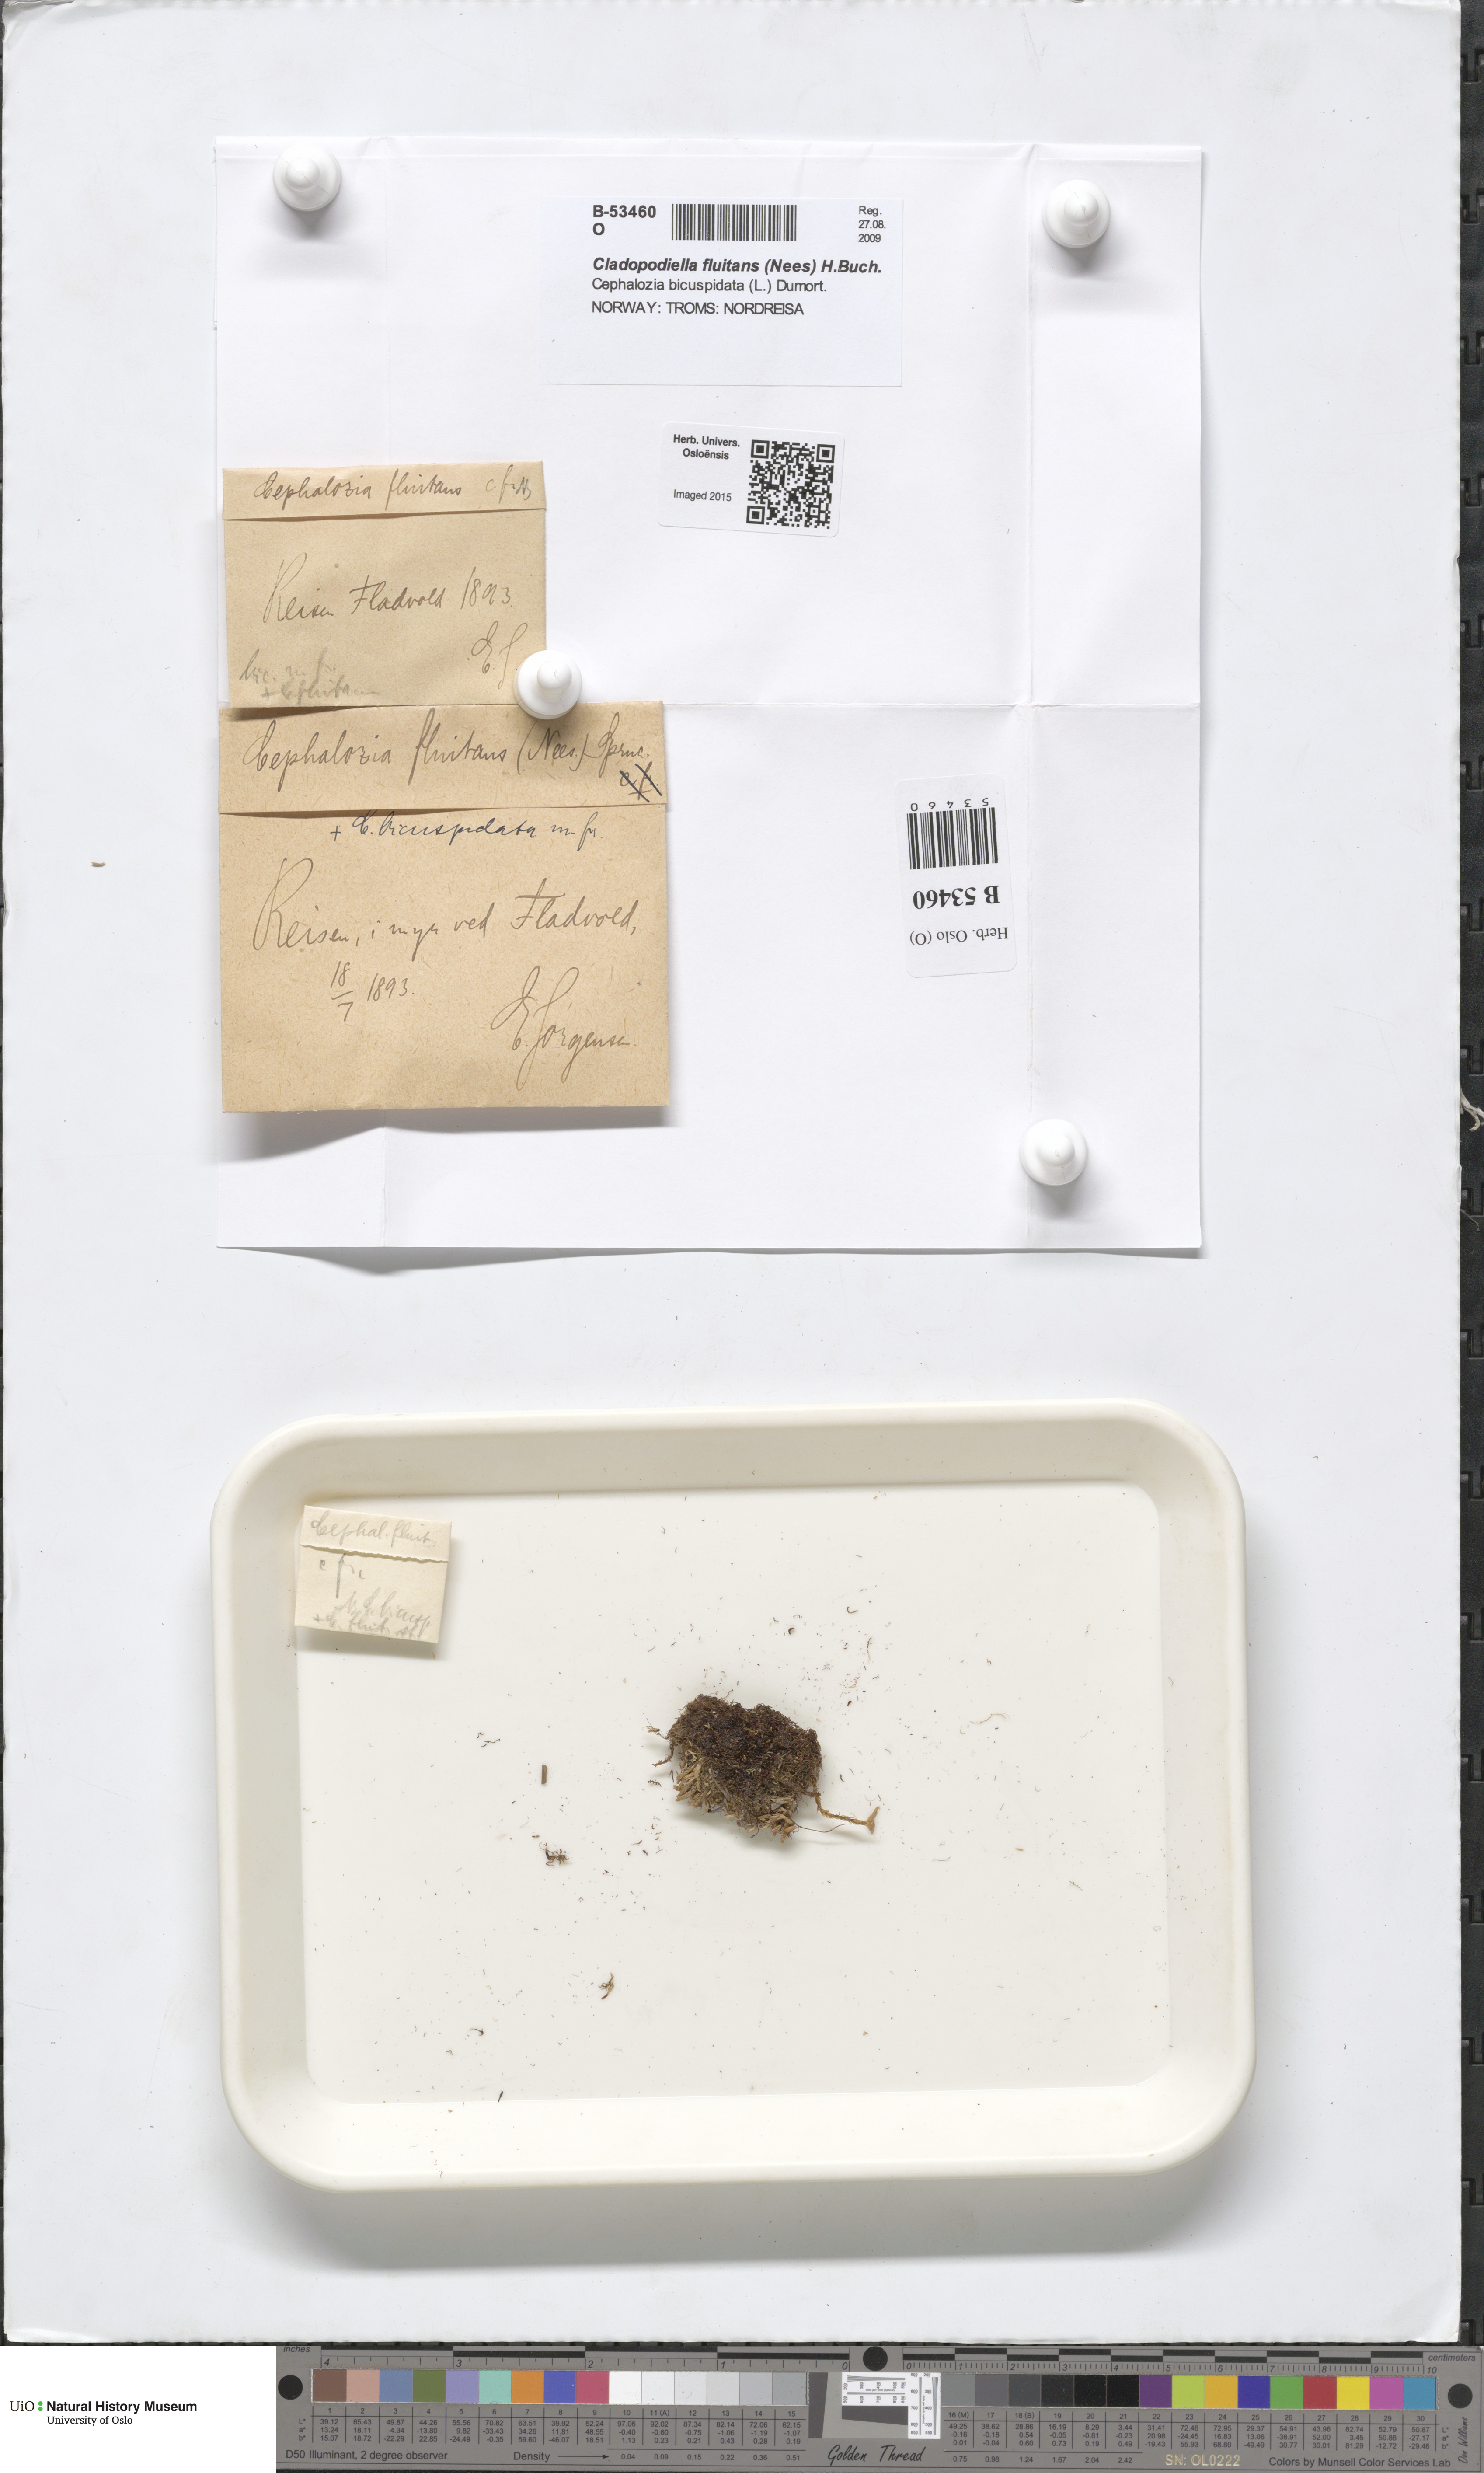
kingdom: Plantae
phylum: Marchantiophyta
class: Jungermanniopsida
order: Jungermanniales
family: Cephaloziaceae
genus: Odontoschisma
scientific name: Odontoschisma fluitans
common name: Cladopodiella moss
